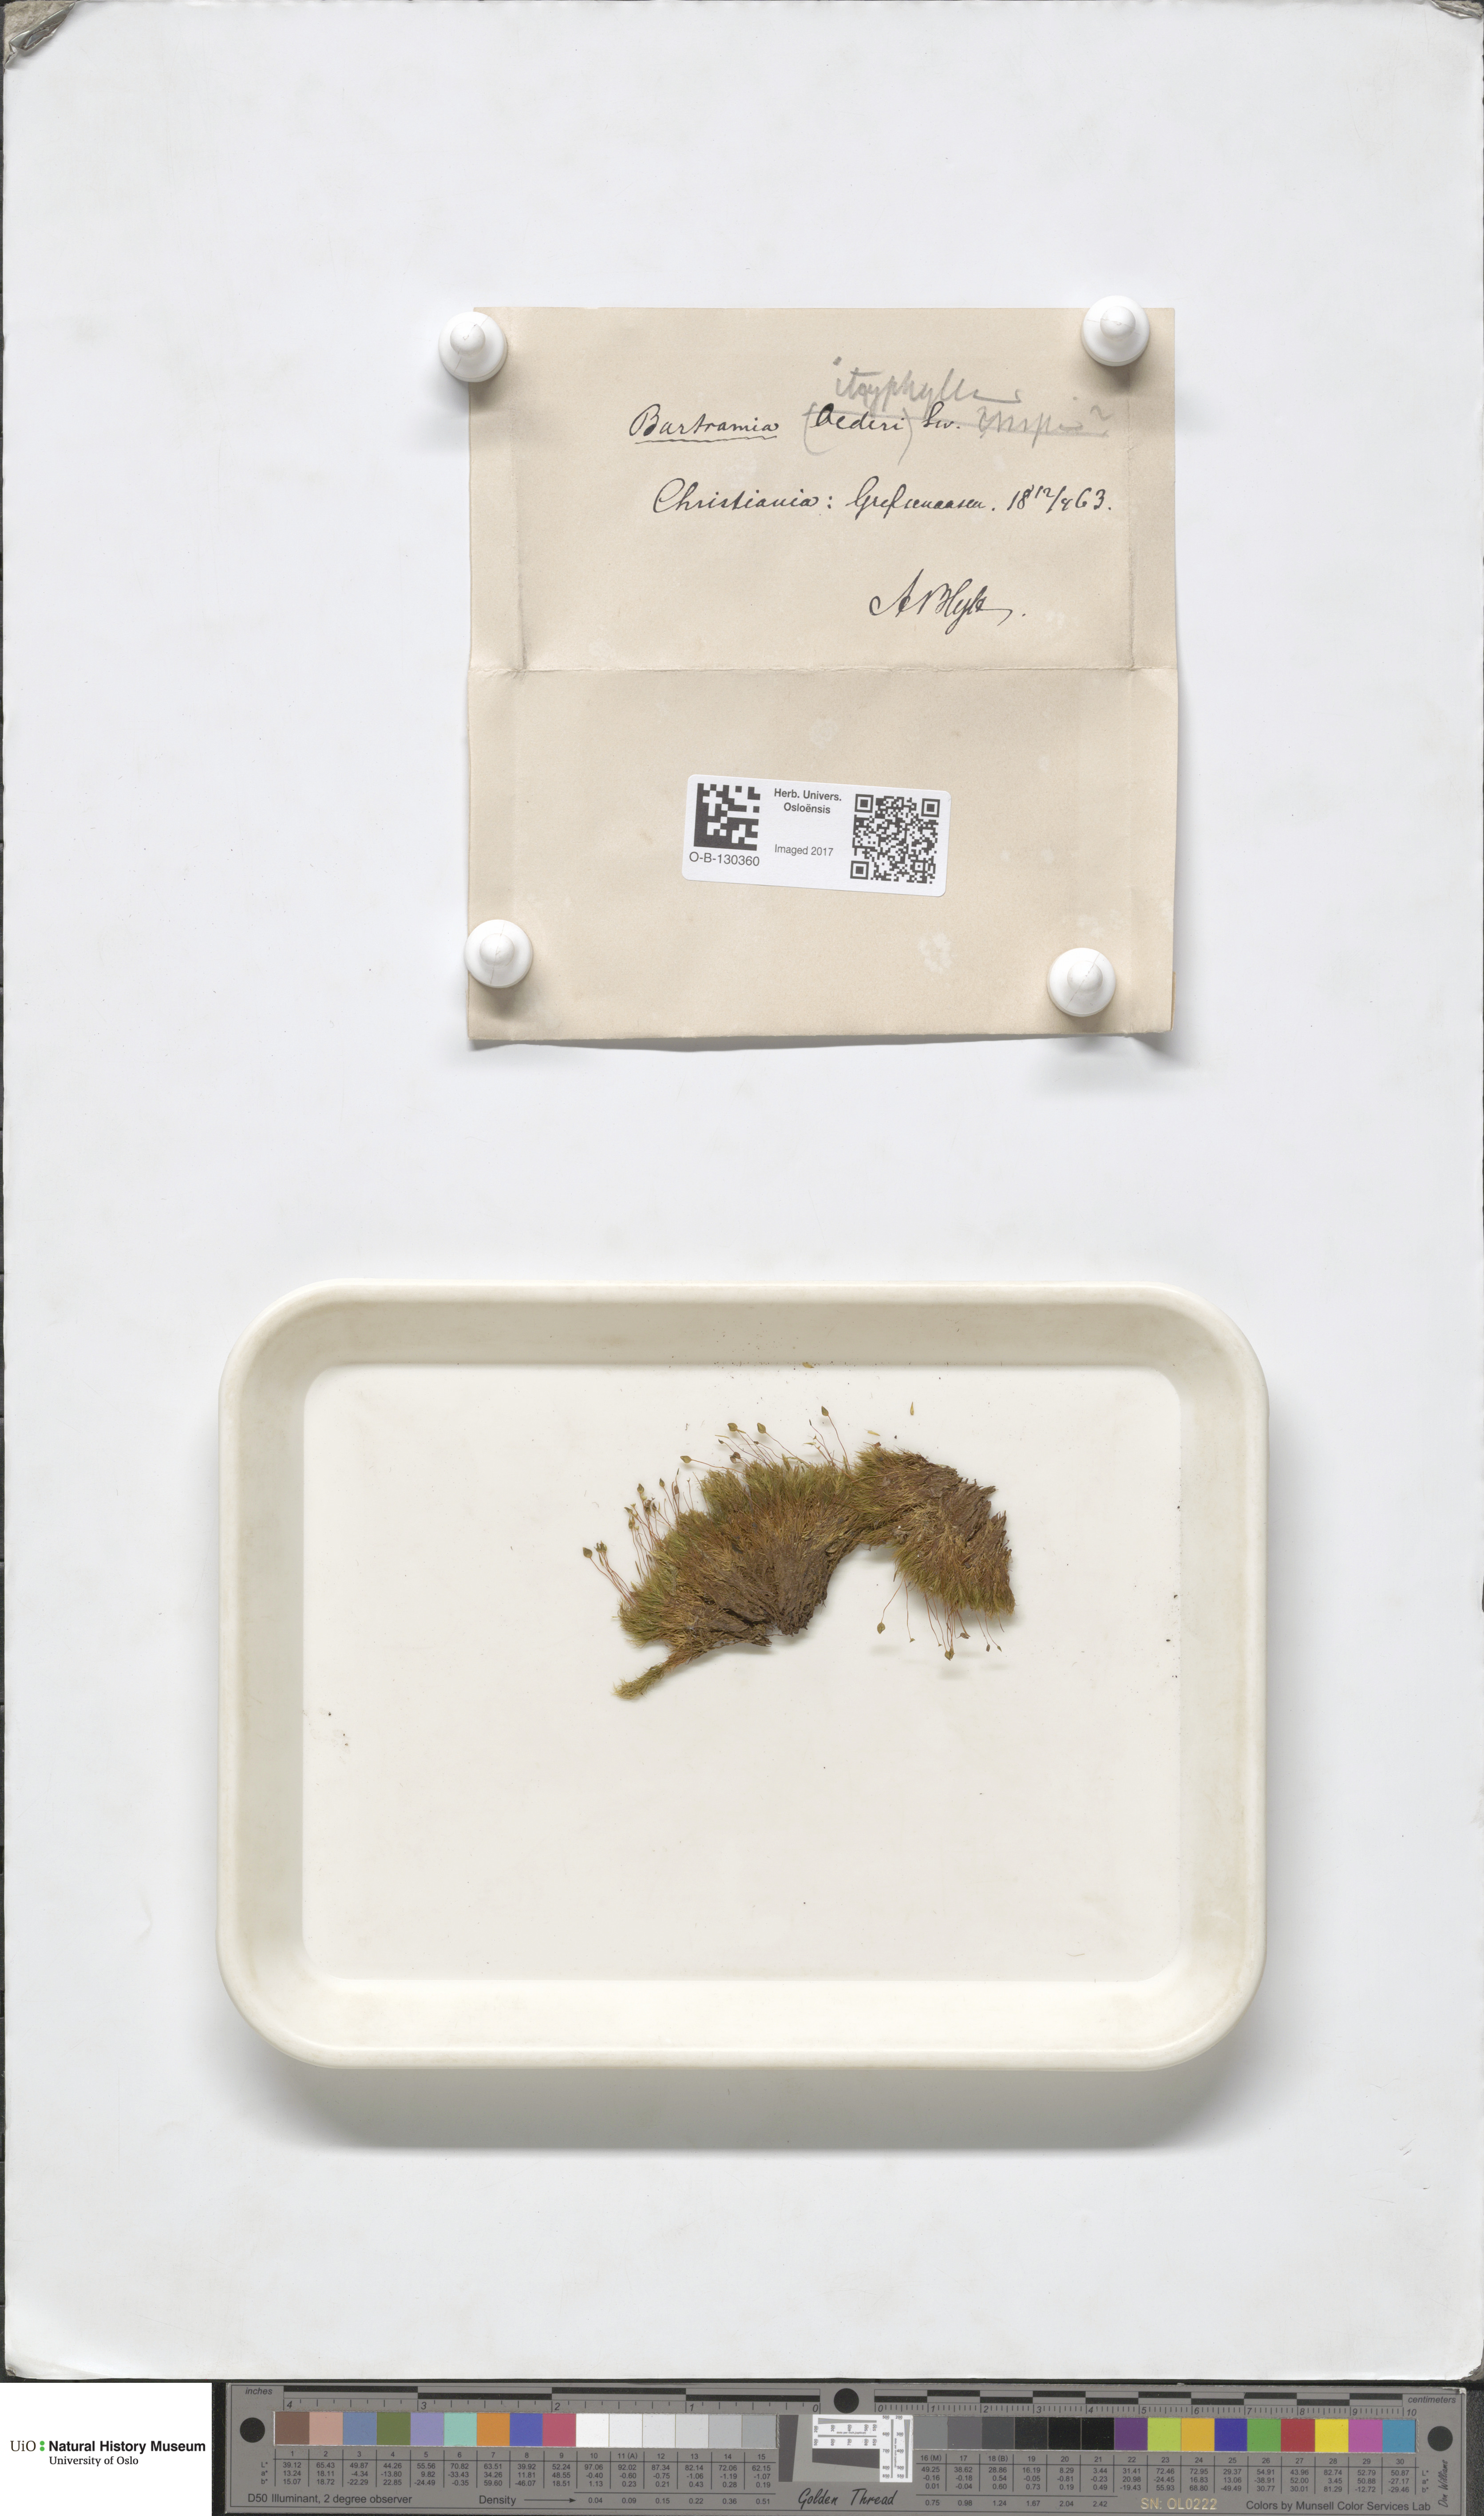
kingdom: Plantae
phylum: Bryophyta
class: Bryopsida
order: Bartramiales
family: Bartramiaceae
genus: Bartramia
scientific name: Bartramia ithyphylla
